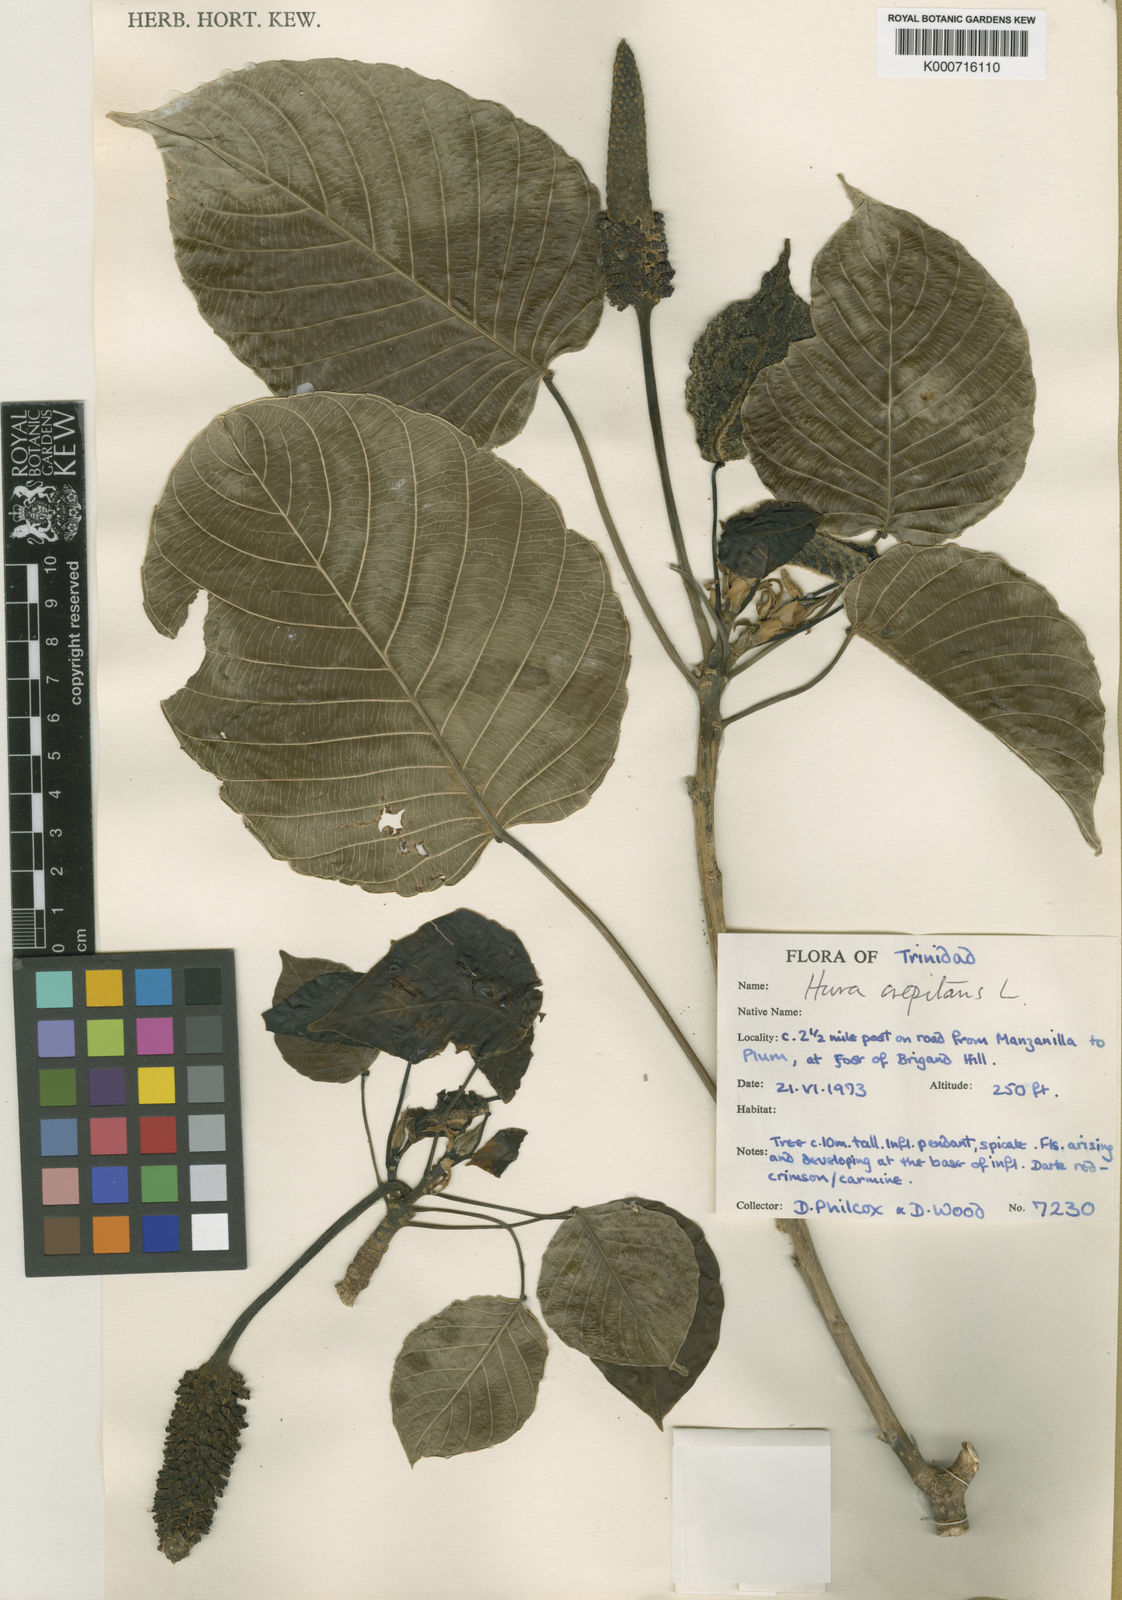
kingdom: Plantae
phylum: Tracheophyta
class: Magnoliopsida
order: Malpighiales
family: Euphorbiaceae
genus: Hura
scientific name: Hura crepitans
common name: Sandboxtree
